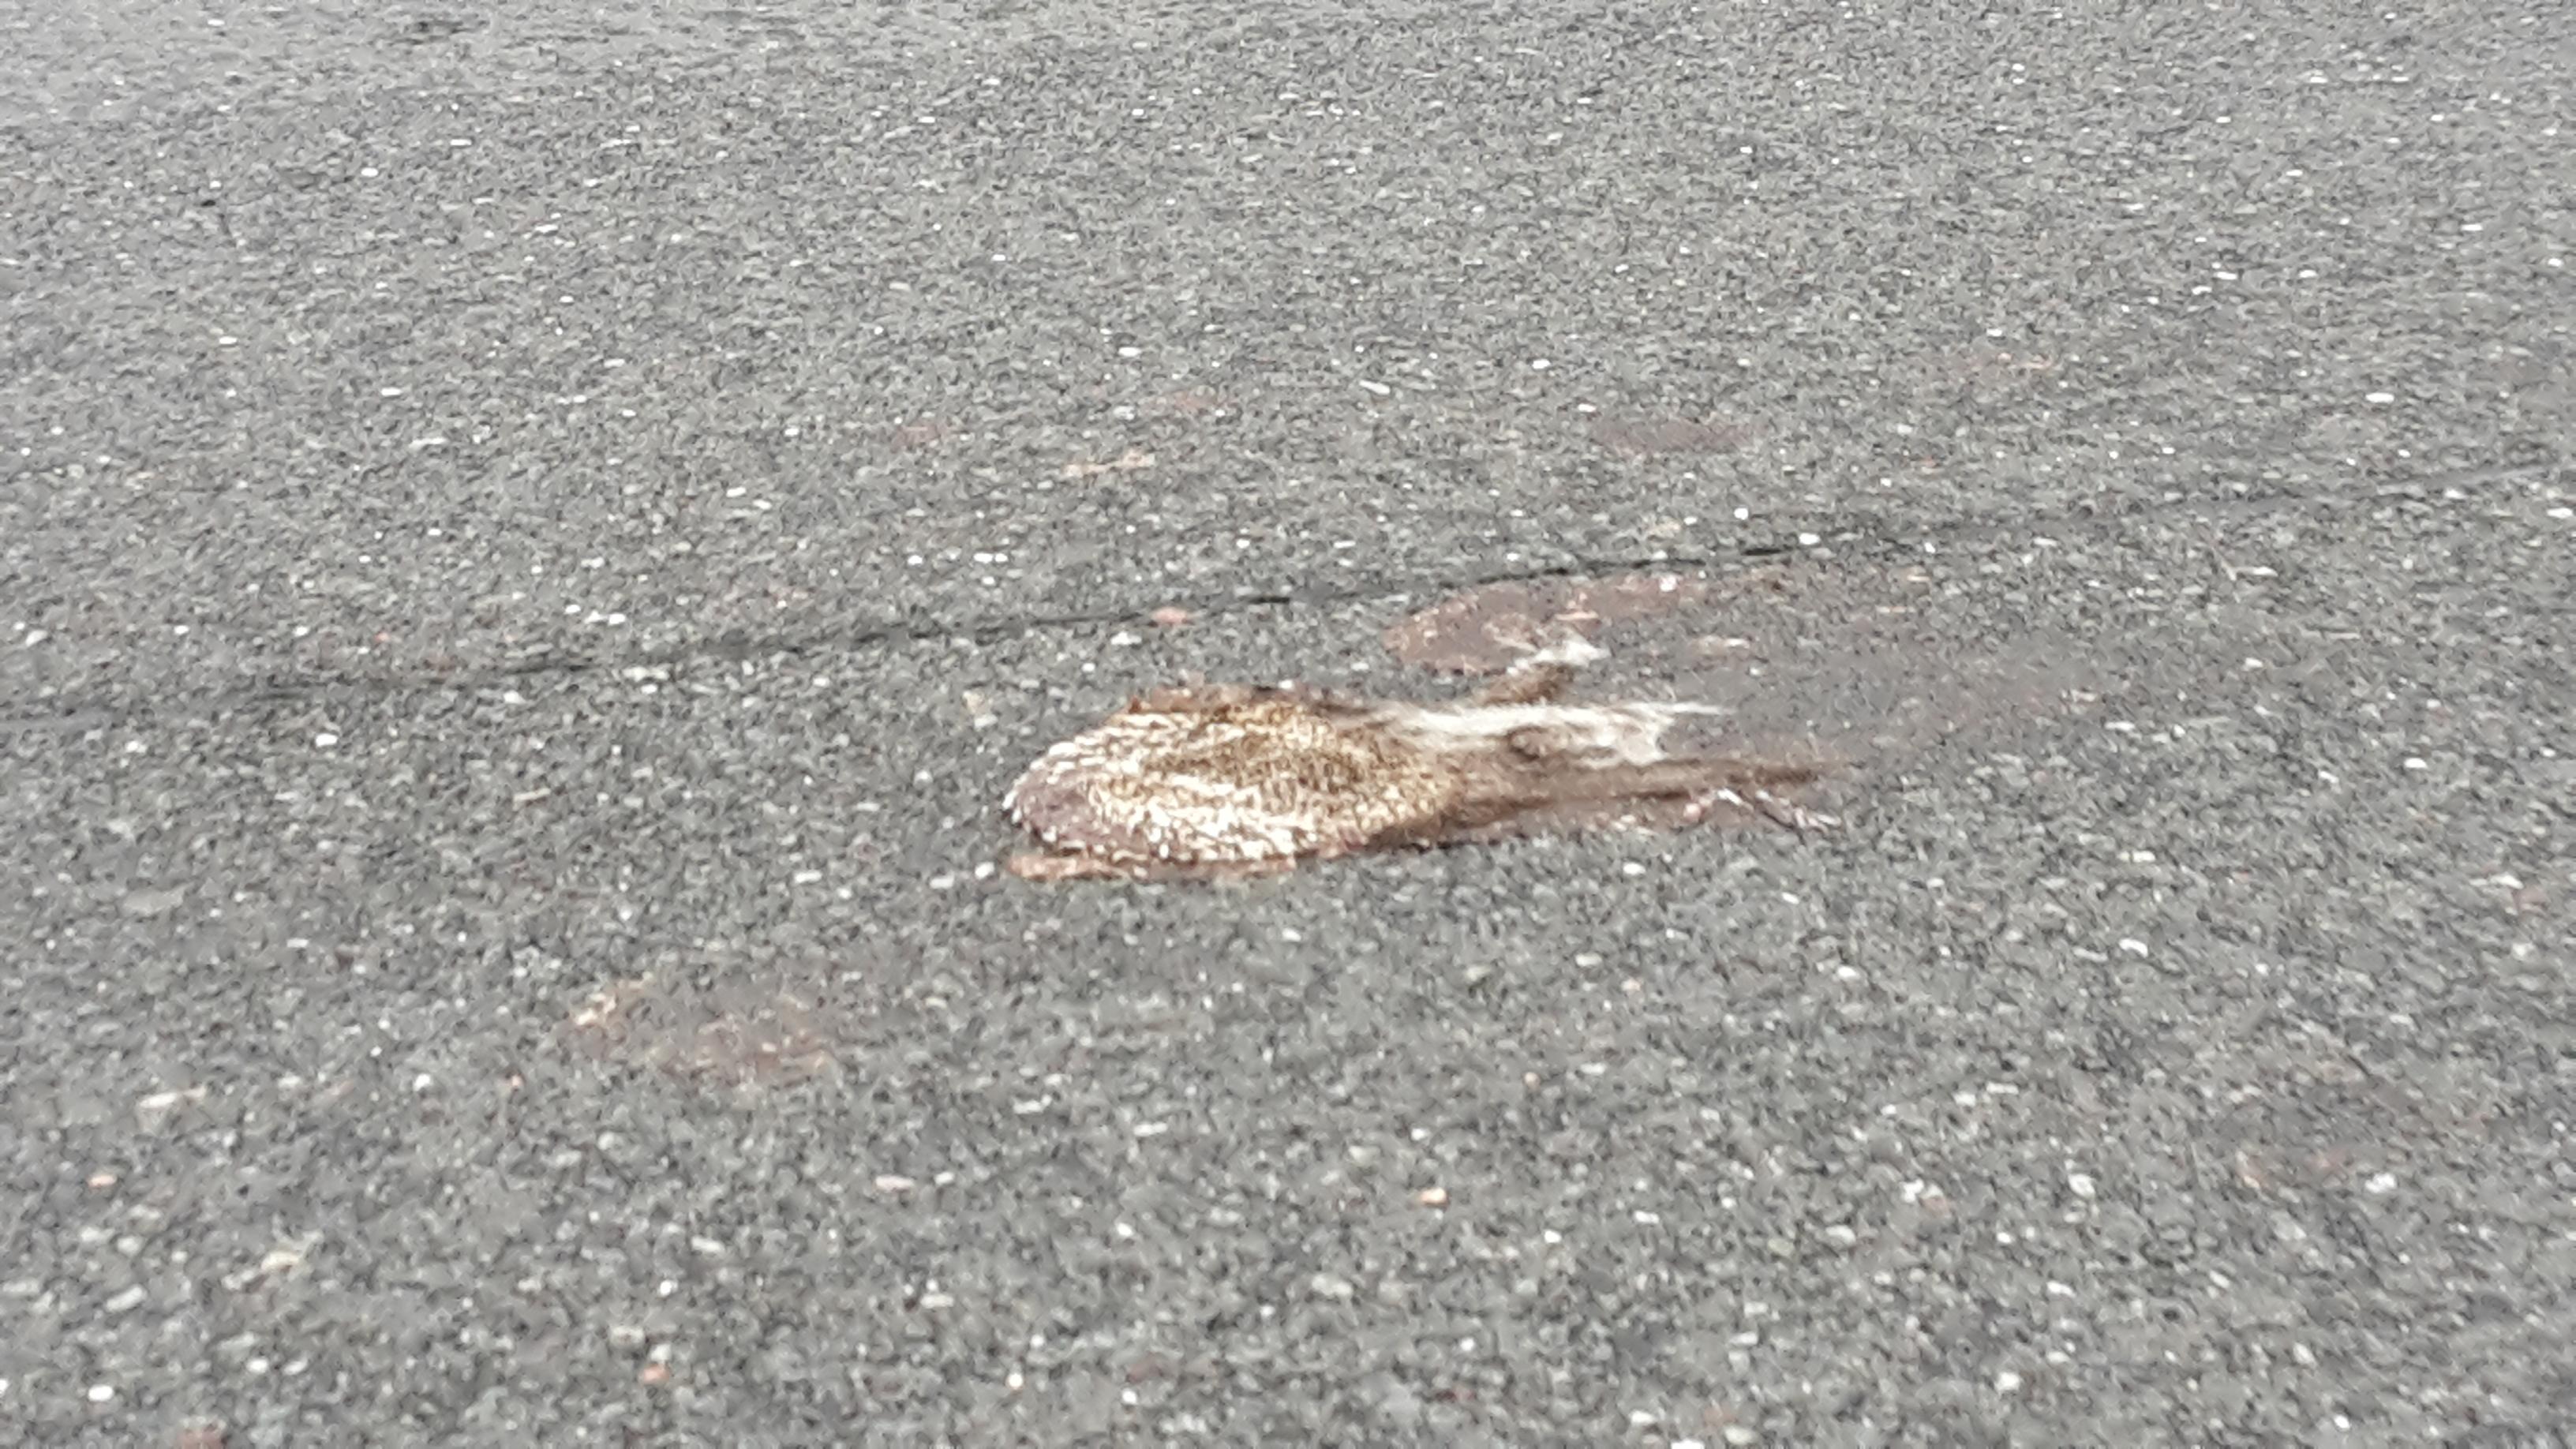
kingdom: Animalia
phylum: Chordata
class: Mammalia
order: Erinaceomorpha
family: Erinaceidae
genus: Erinaceus
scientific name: Erinaceus
